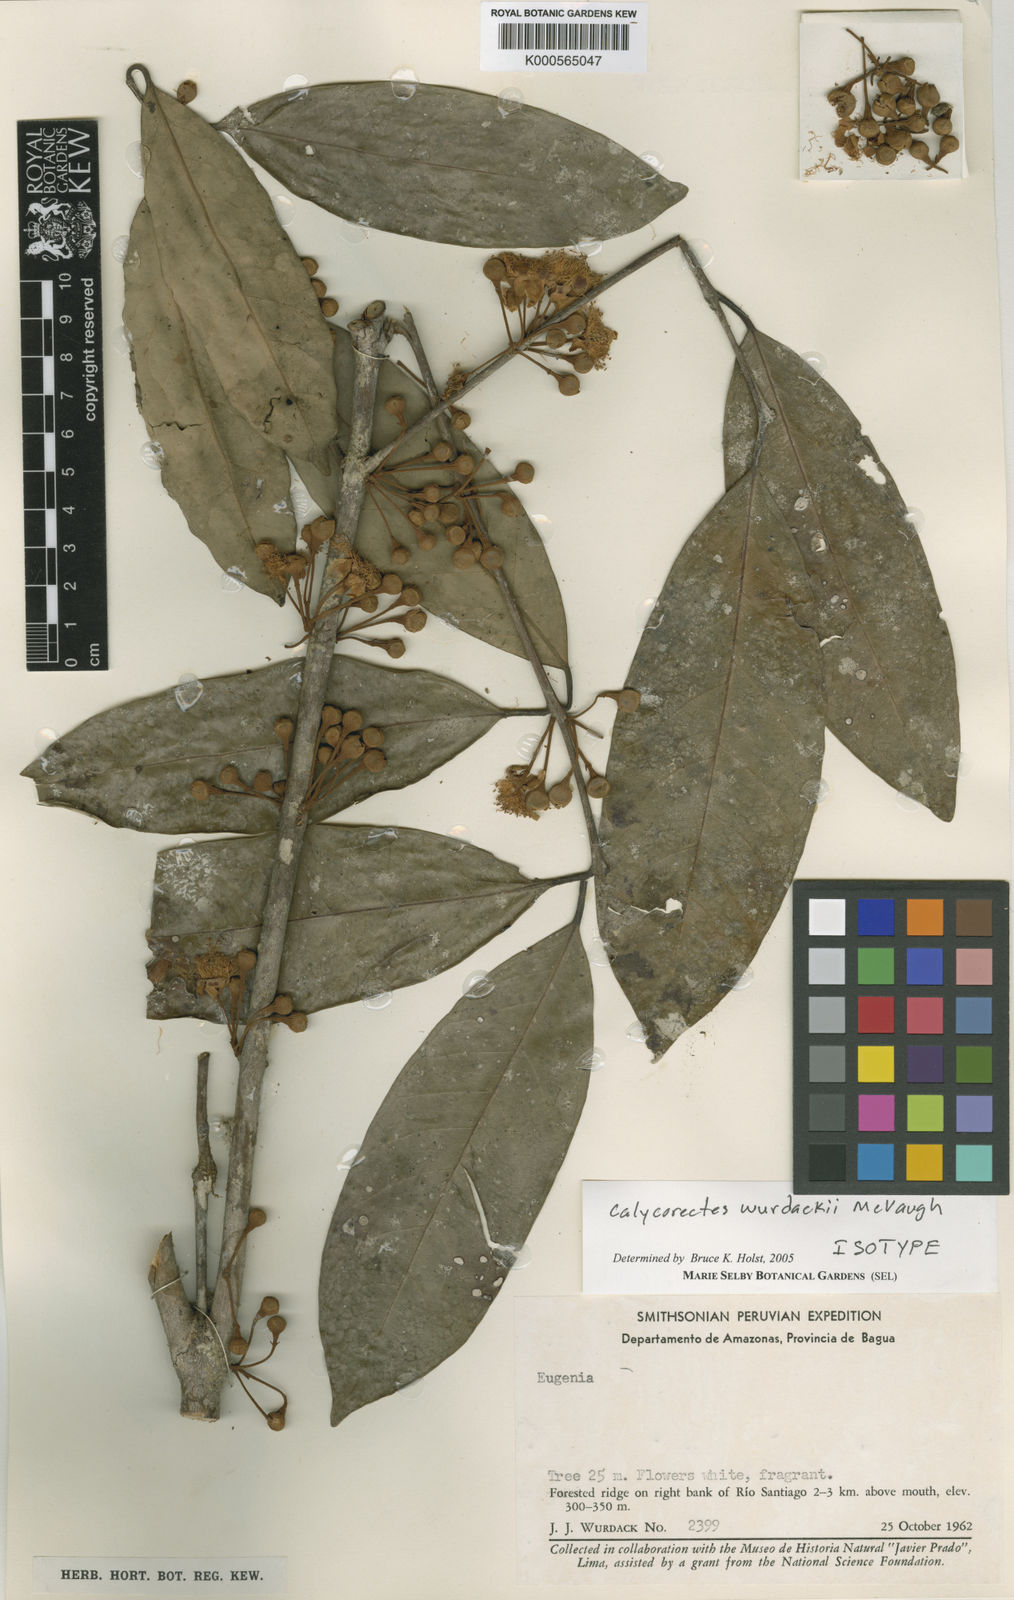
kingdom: Plantae
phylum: Tracheophyta
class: Magnoliopsida
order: Myrtales
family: Myrtaceae
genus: Calycorectes
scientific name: Calycorectes wurdackii
